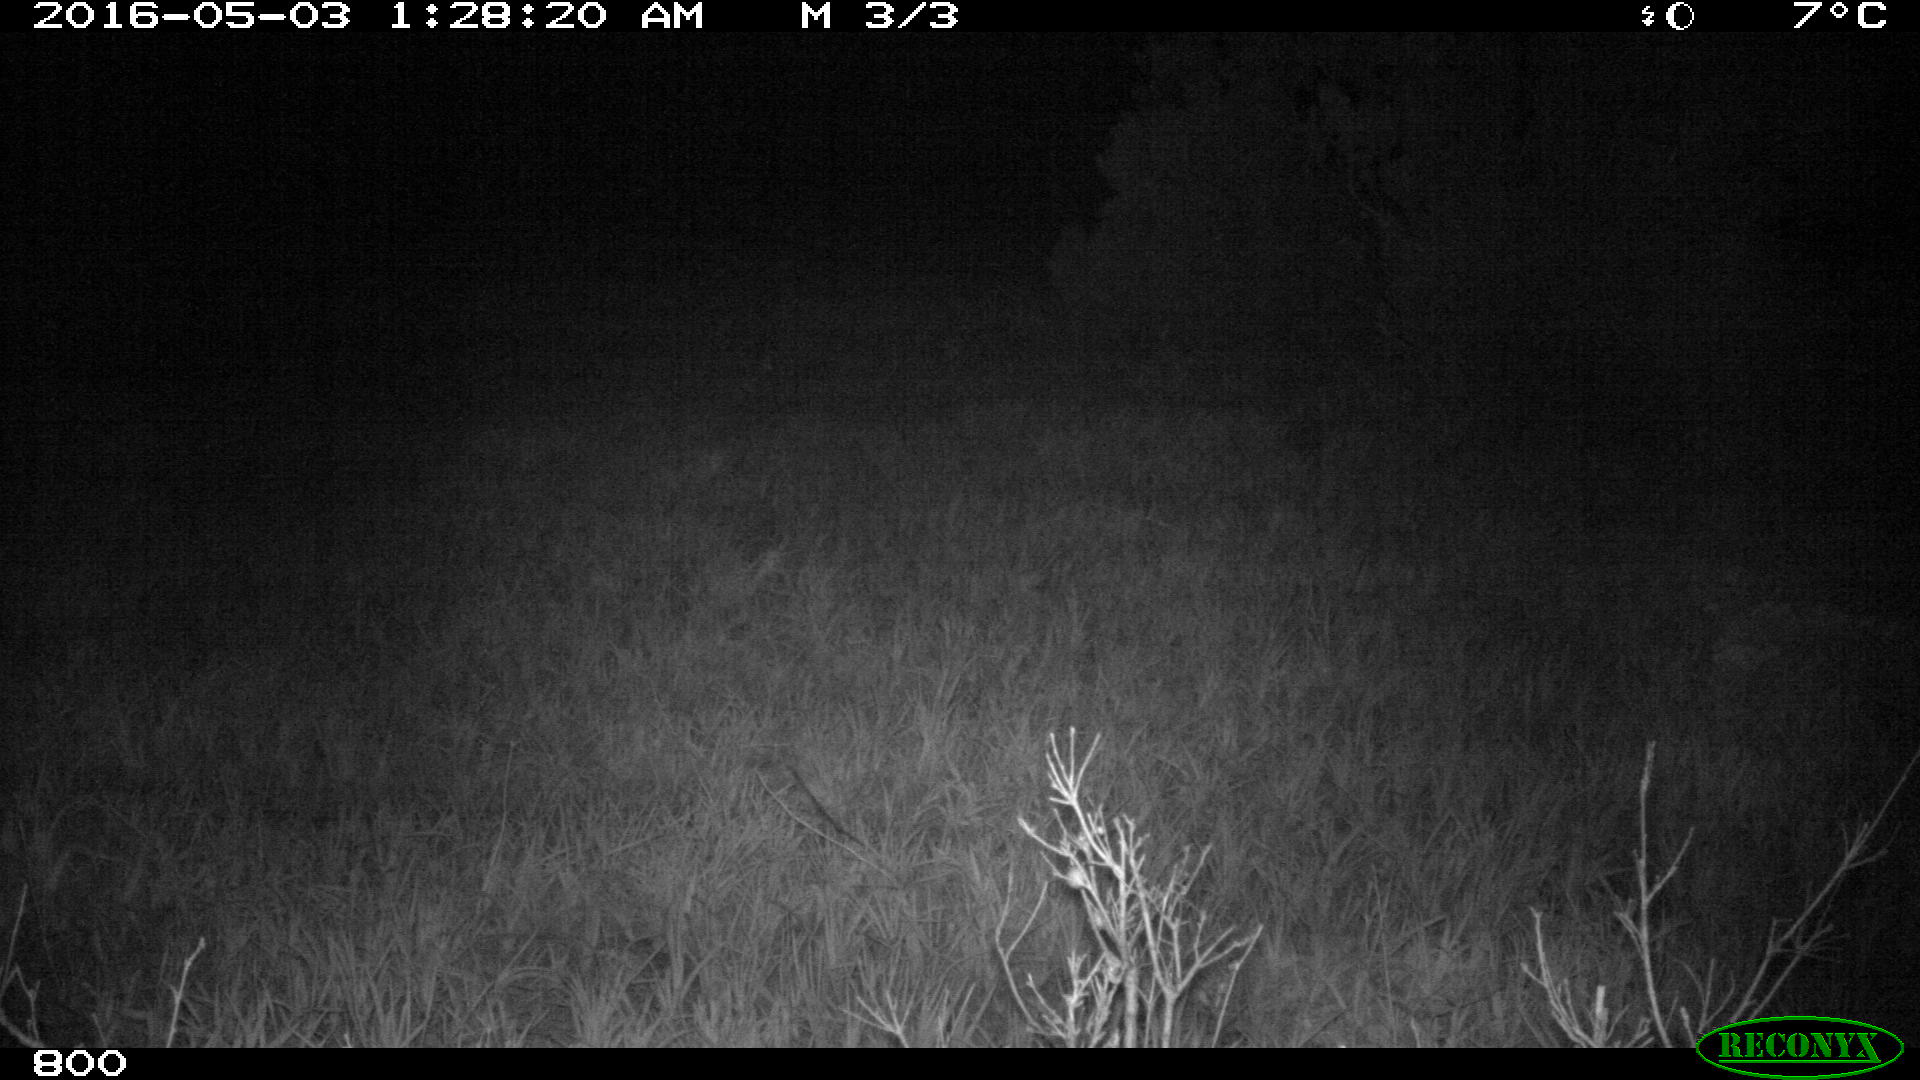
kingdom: Animalia
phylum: Chordata
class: Mammalia
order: Artiodactyla
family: Suidae
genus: Sus
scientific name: Sus scrofa
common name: Wild boar
